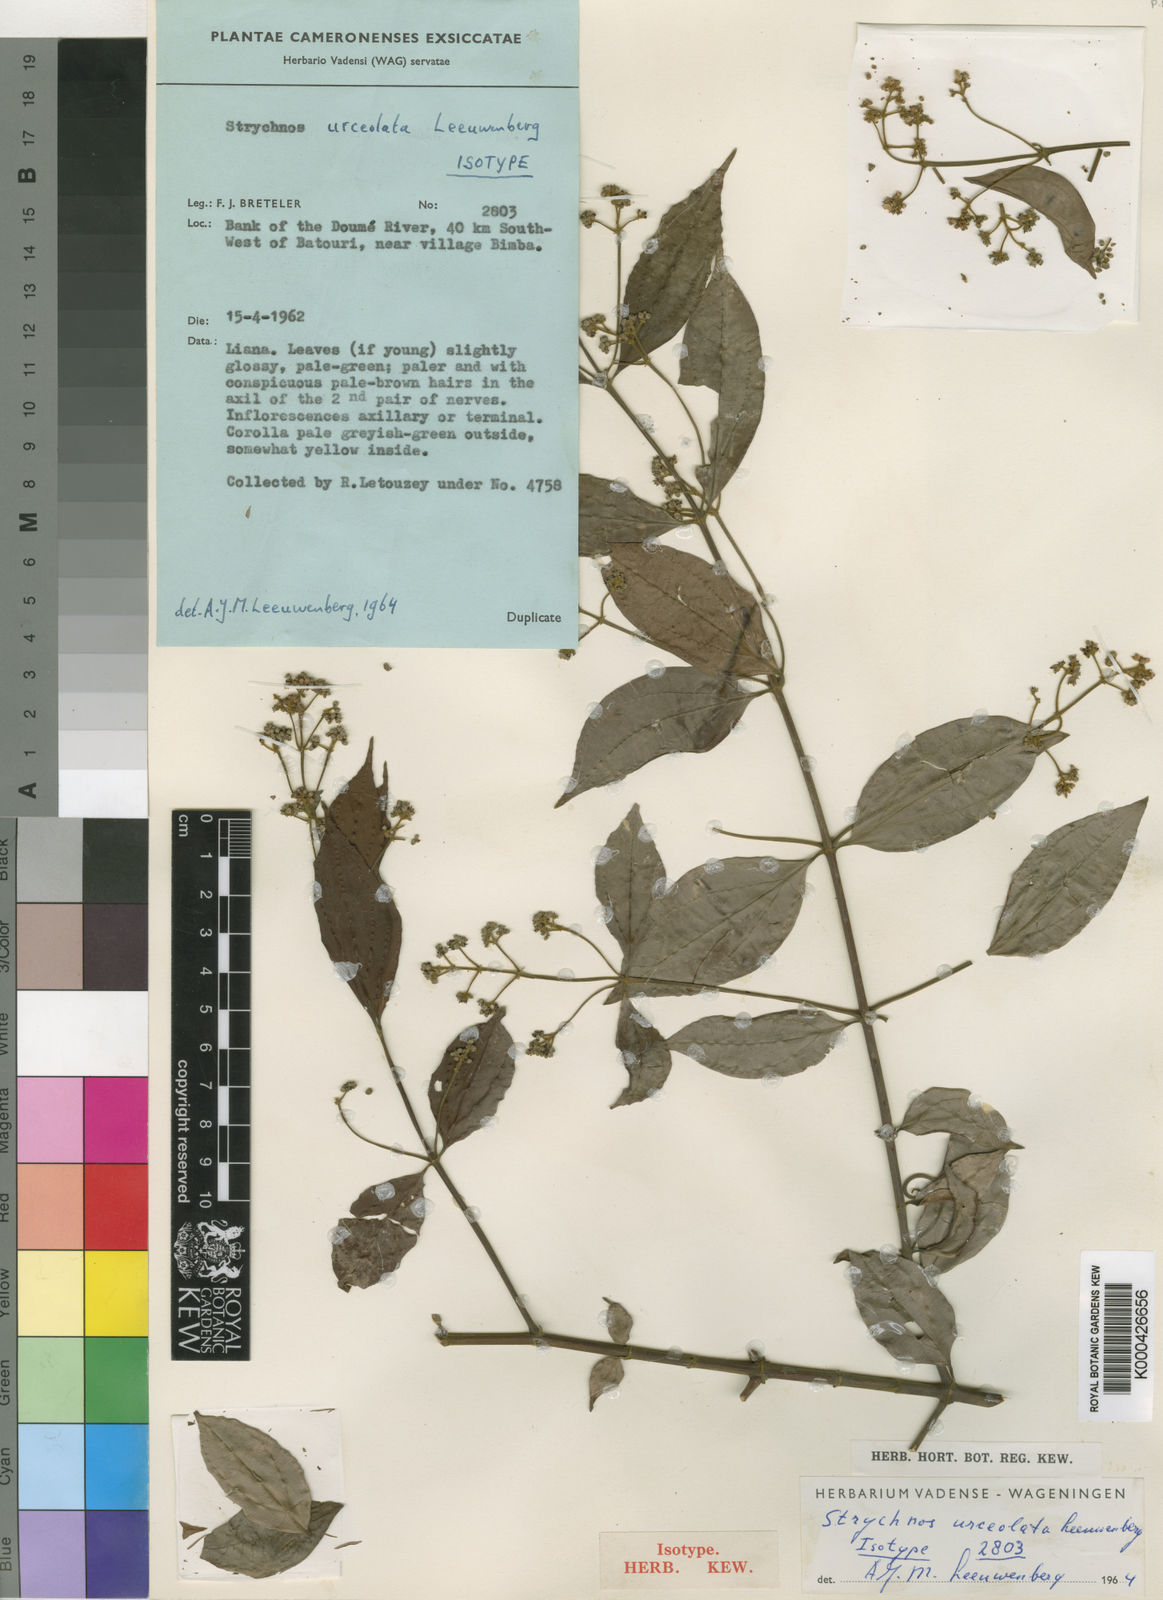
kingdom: Plantae
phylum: Tracheophyta
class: Magnoliopsida
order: Gentianales
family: Loganiaceae
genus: Strychnos
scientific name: Strychnos urceolata
